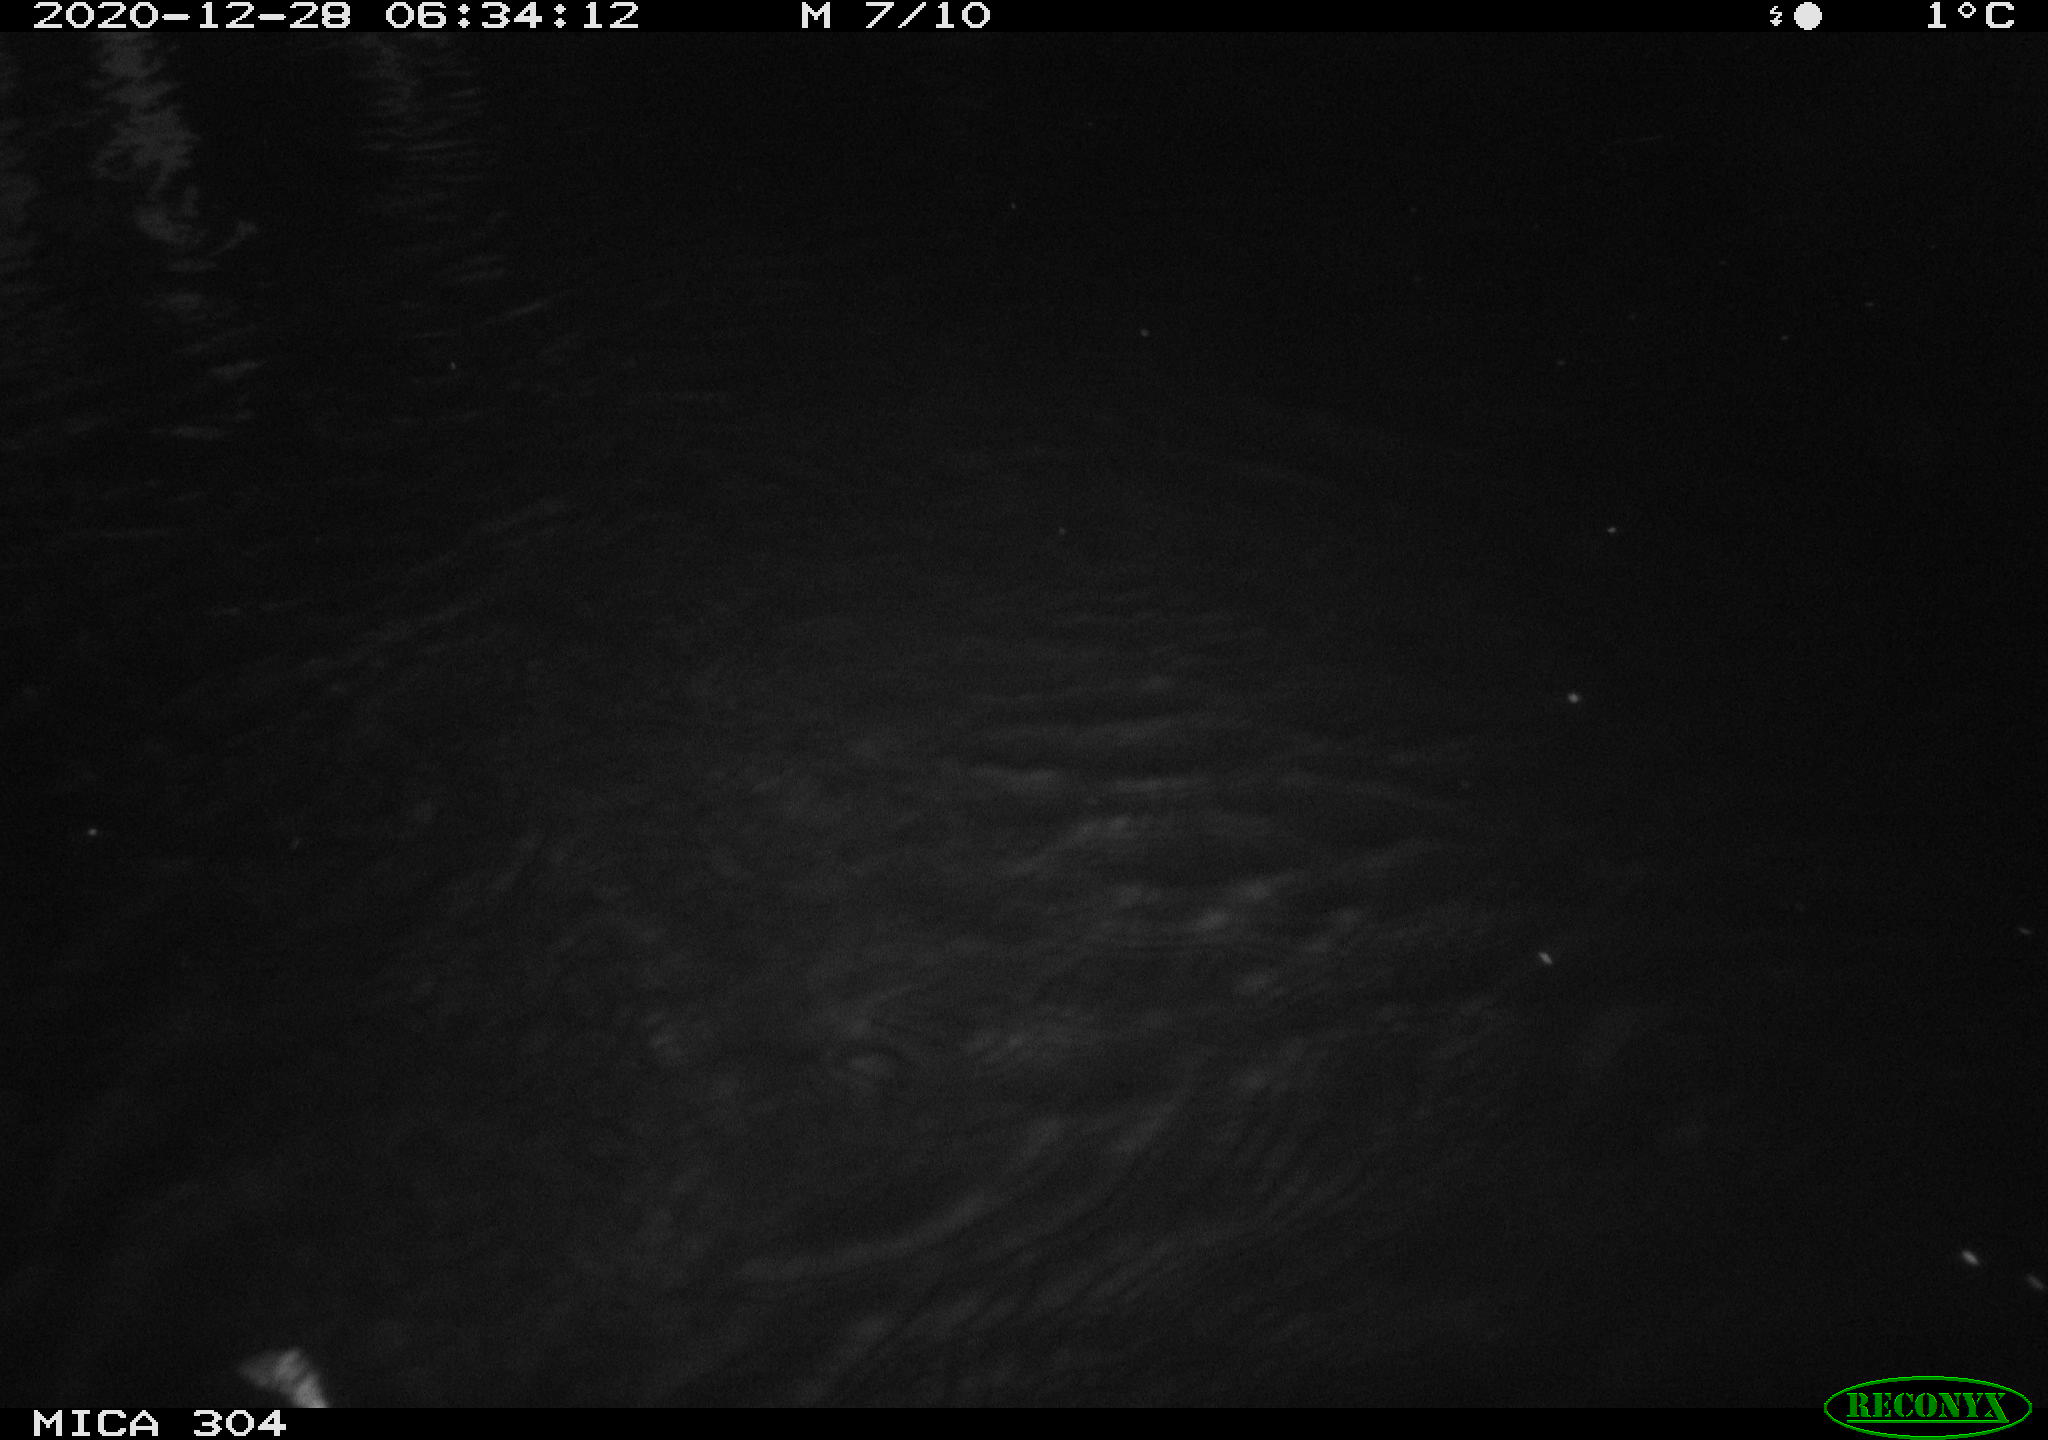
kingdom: Animalia
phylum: Chordata
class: Mammalia
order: Rodentia
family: Muridae
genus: Rattus
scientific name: Rattus norvegicus
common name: Brown rat
